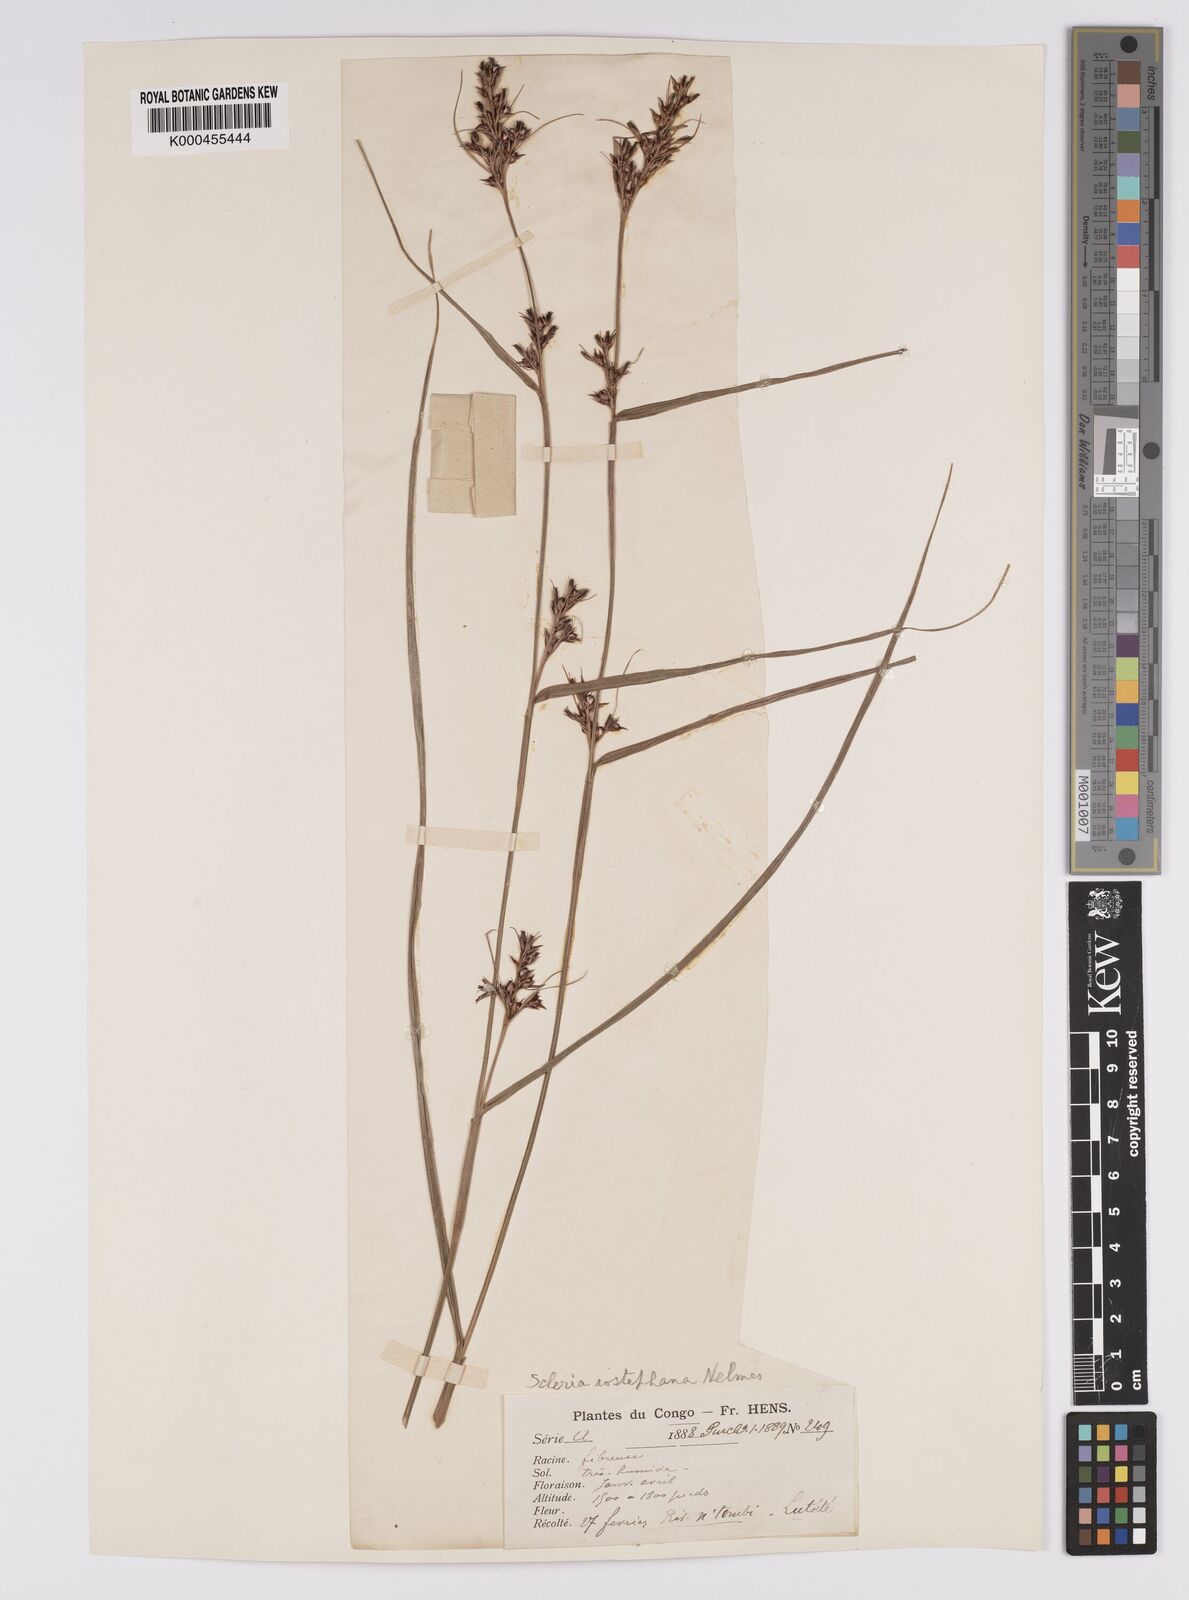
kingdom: Plantae
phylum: Tracheophyta
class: Liliopsida
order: Poales
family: Cyperaceae
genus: Scleria
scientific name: Scleria iostephana
